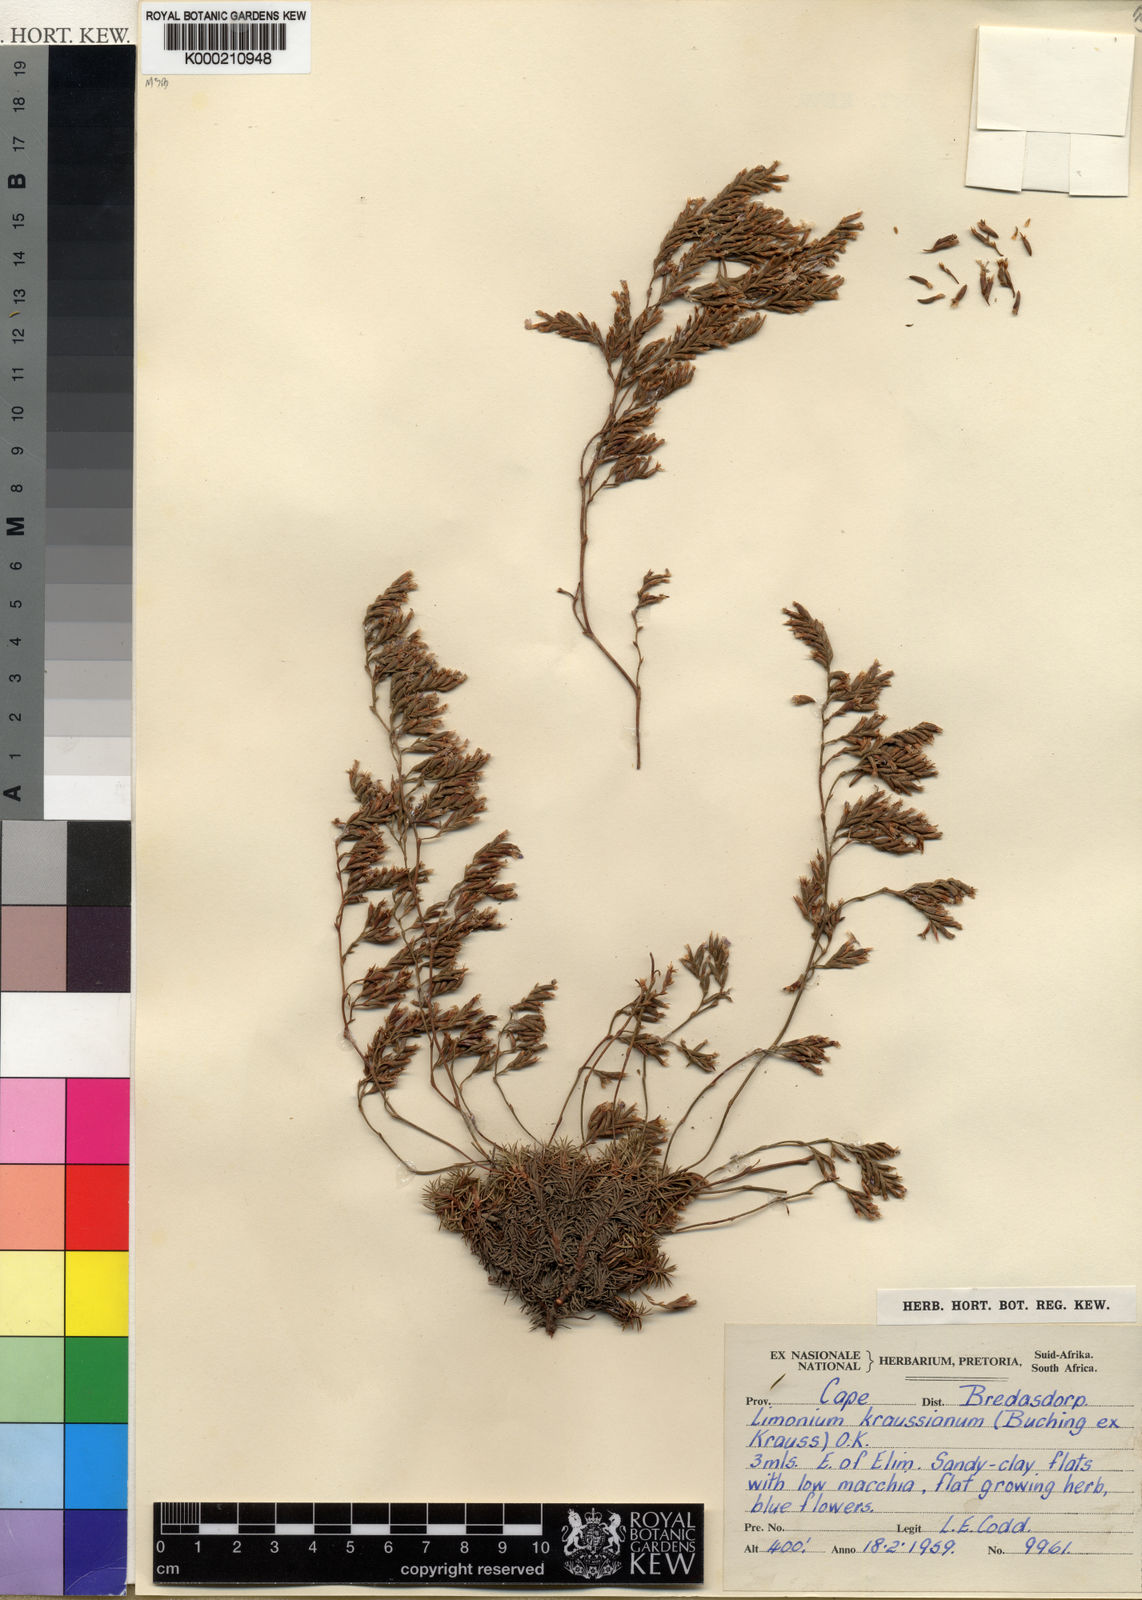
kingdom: Plantae
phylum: Tracheophyta
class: Magnoliopsida
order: Caryophyllales
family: Plumbaginaceae
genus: Limonium
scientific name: Limonium kraussianum
